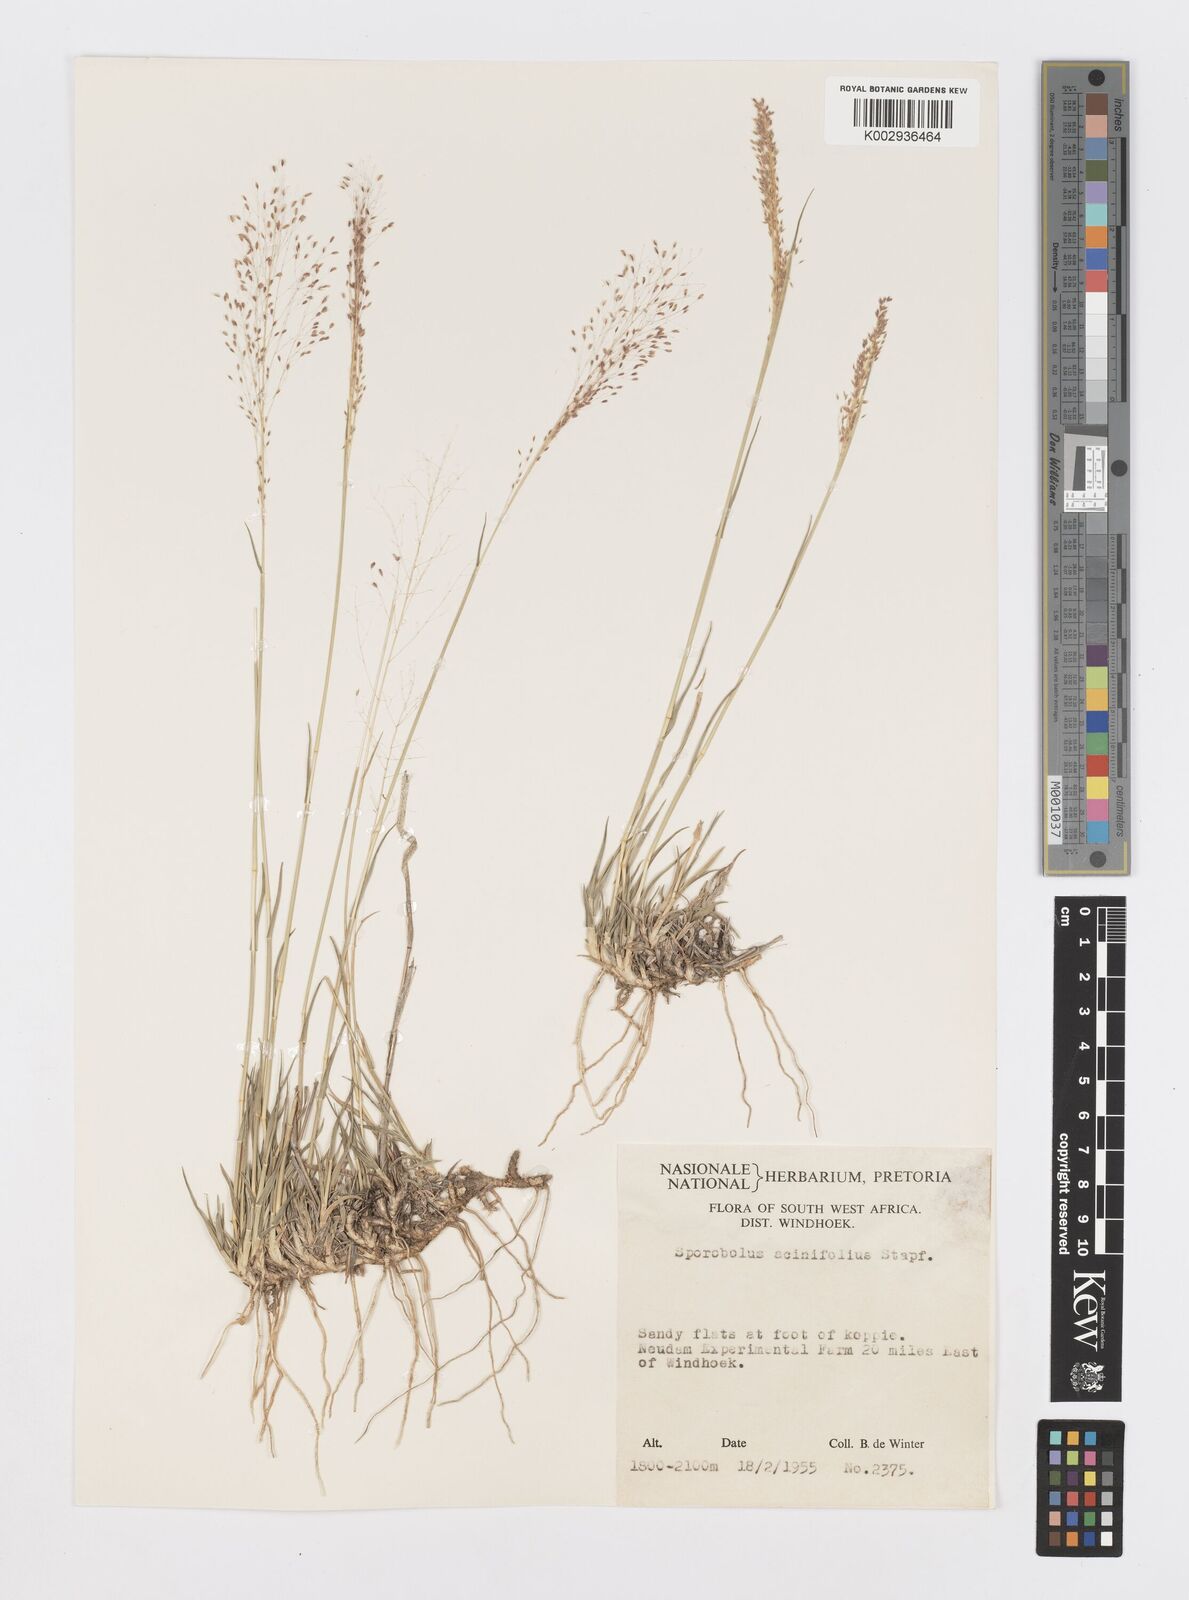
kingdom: Plantae
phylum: Tracheophyta
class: Liliopsida
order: Poales
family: Poaceae
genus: Sporobolus
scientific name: Sporobolus acinifolius
